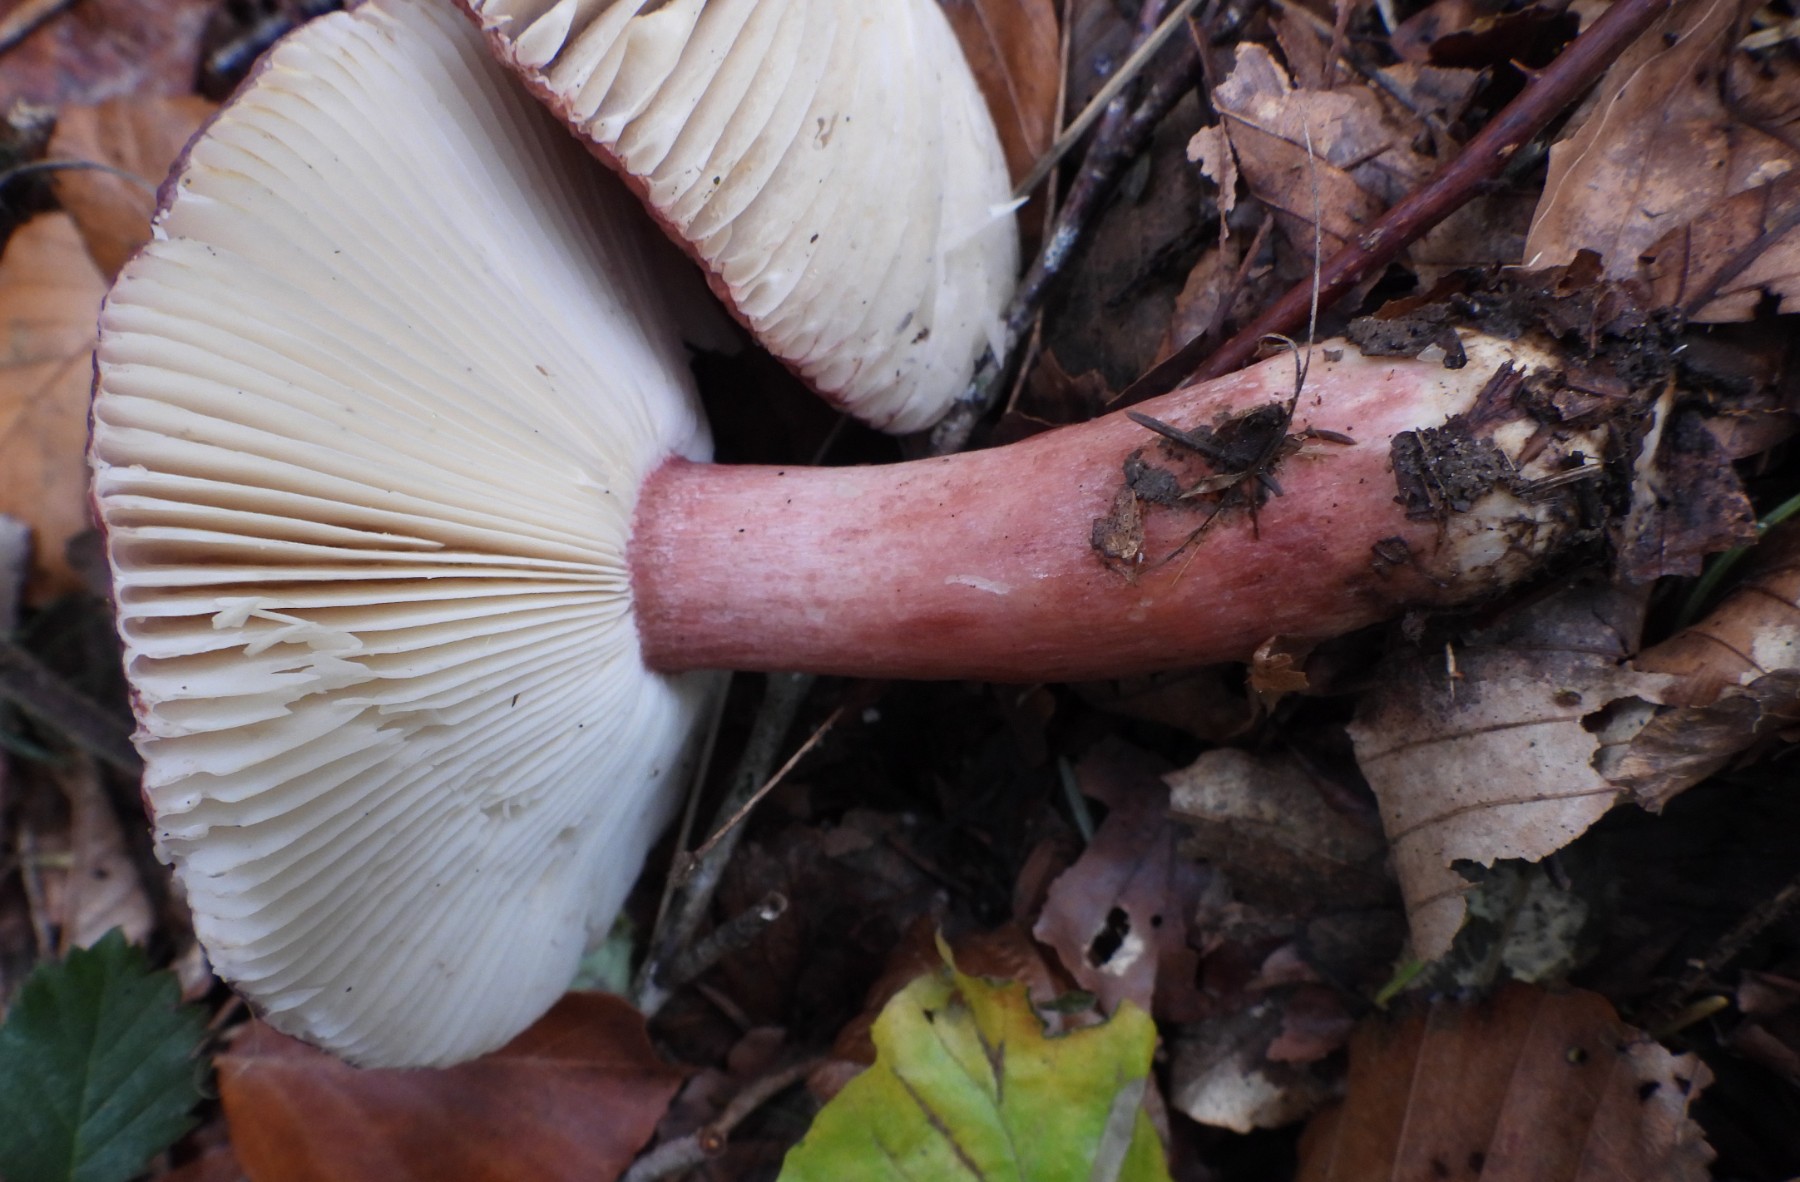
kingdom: Fungi
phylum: Basidiomycota
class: Agaricomycetes
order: Russulales
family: Russulaceae
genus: Russula
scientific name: Russula queletii
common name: Quélets skørhat
